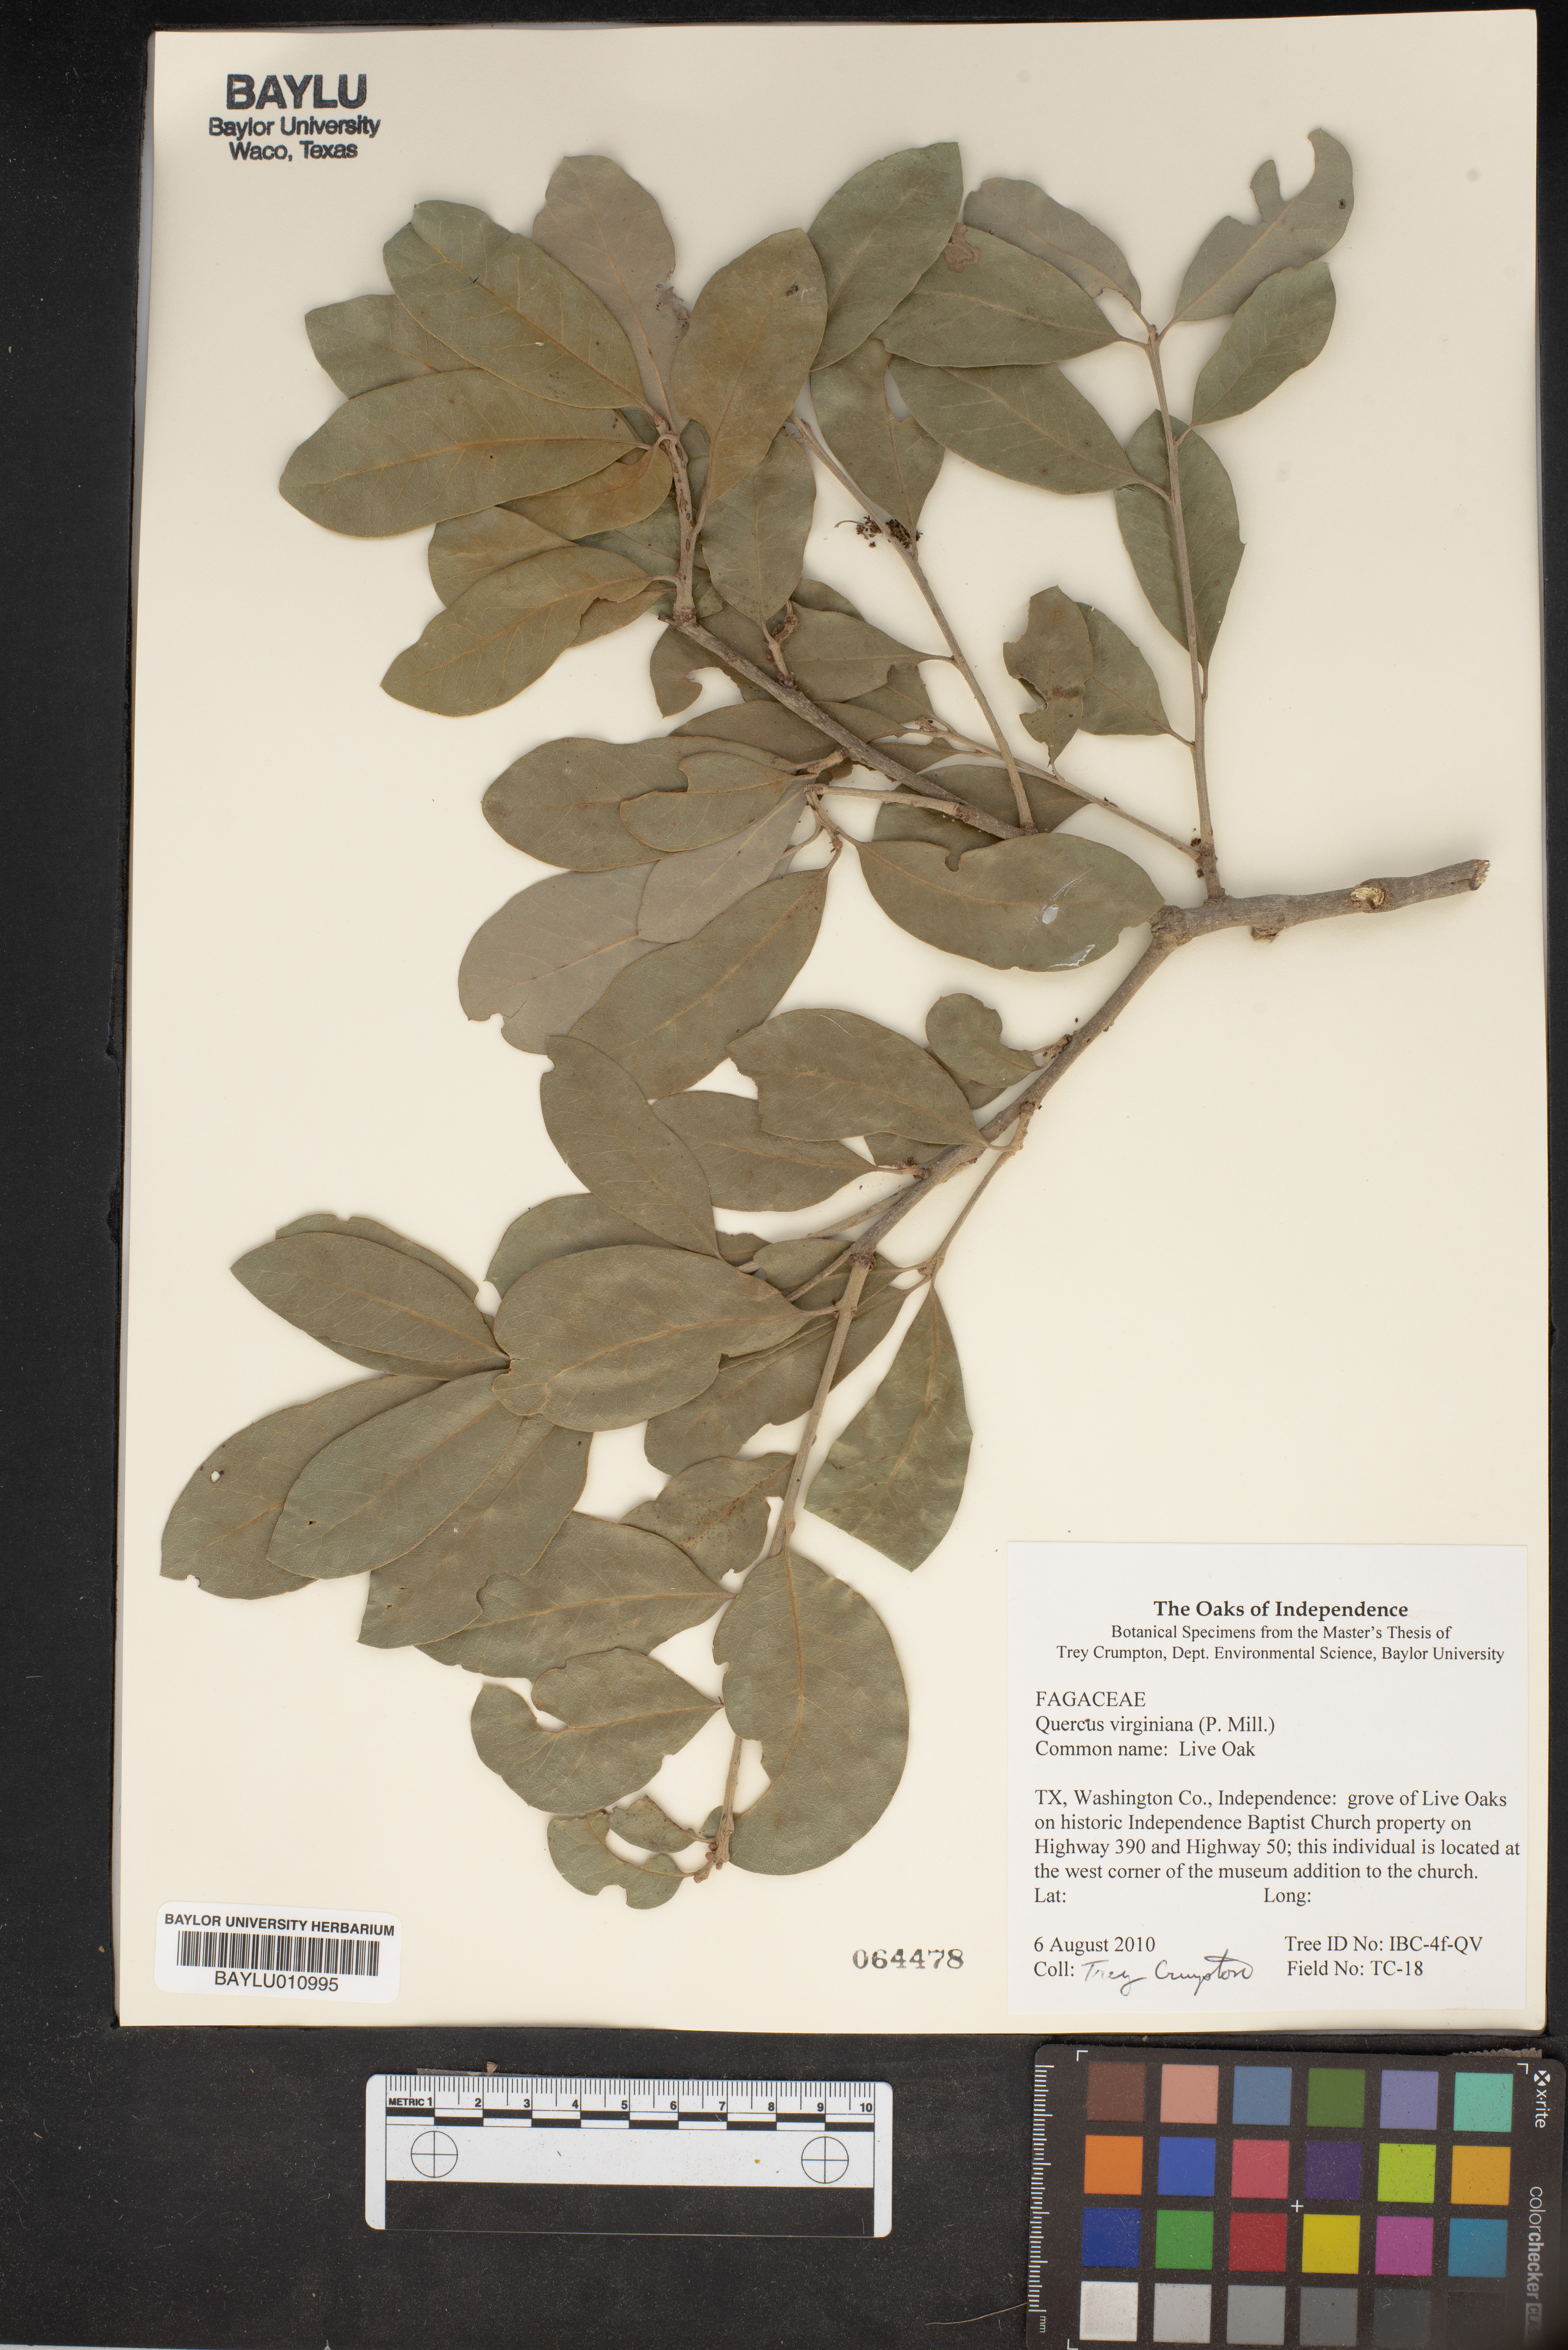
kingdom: Plantae
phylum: Tracheophyta
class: Magnoliopsida
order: Fagales
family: Fagaceae
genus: Quercus
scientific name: Quercus virginiana
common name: Southern live oak
